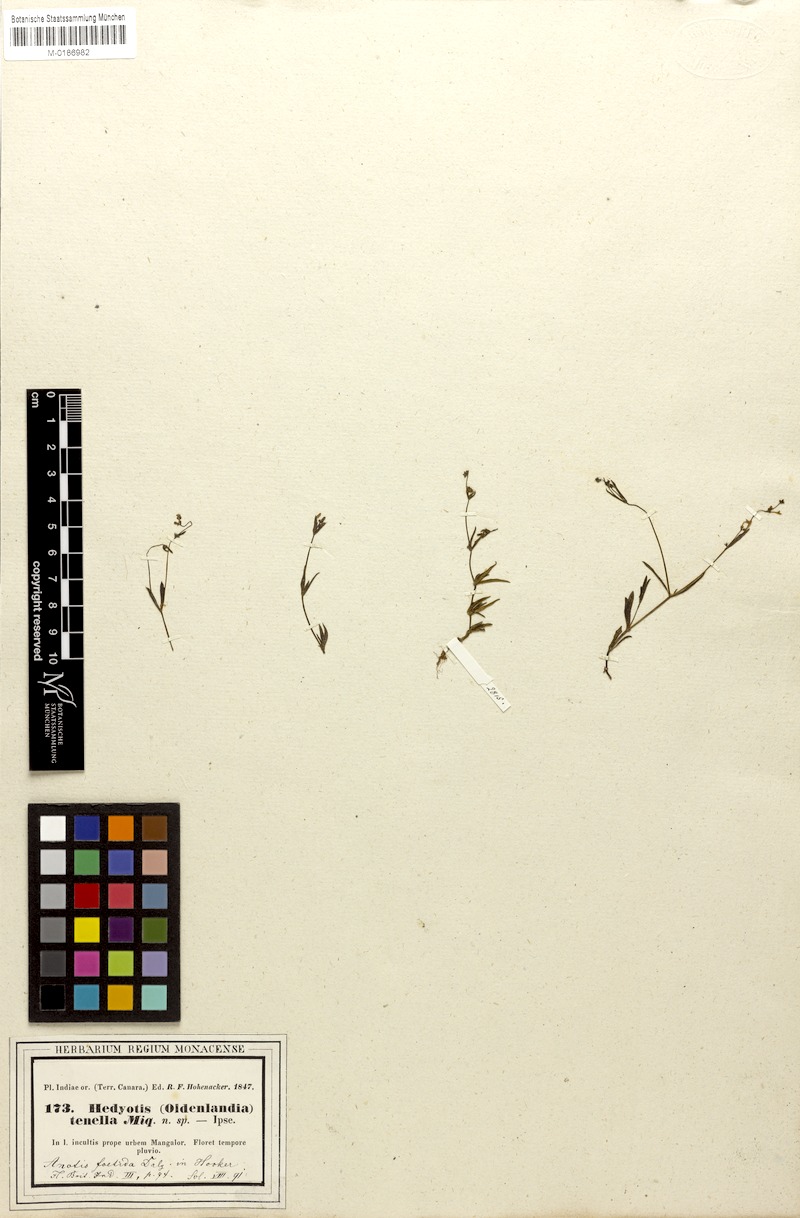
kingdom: Plantae
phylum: Tracheophyta
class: Magnoliopsida
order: Gentianales
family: Rubiaceae
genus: Neanotis
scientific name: Neanotis subtilis
